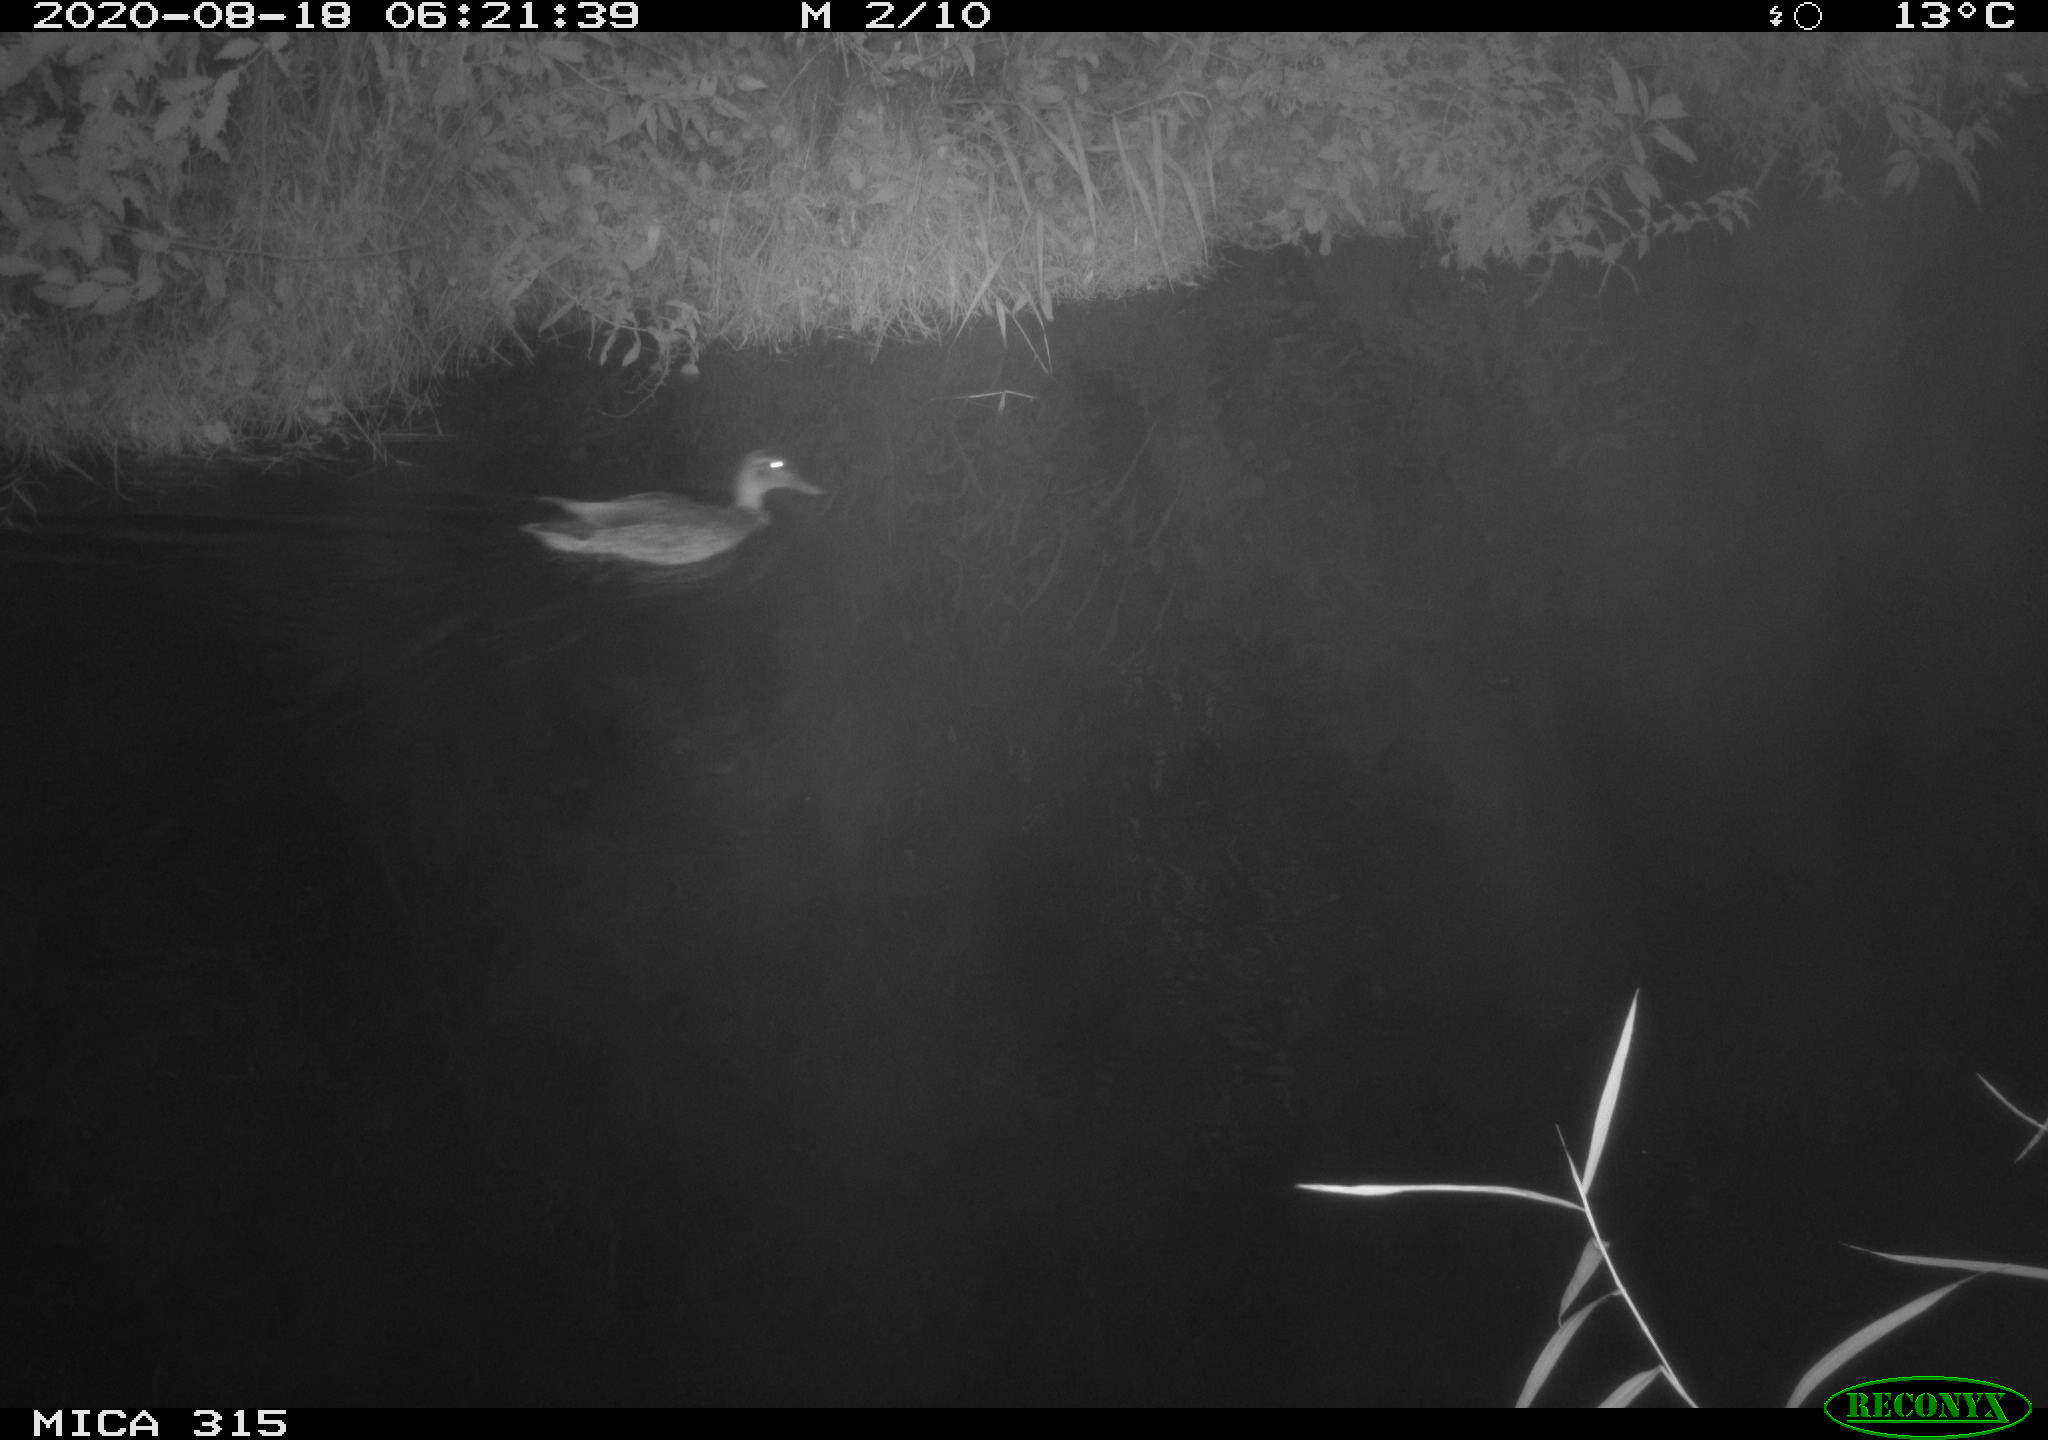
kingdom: Animalia
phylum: Chordata
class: Aves
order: Anseriformes
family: Anatidae
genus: Anas
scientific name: Anas platyrhynchos
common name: Mallard
